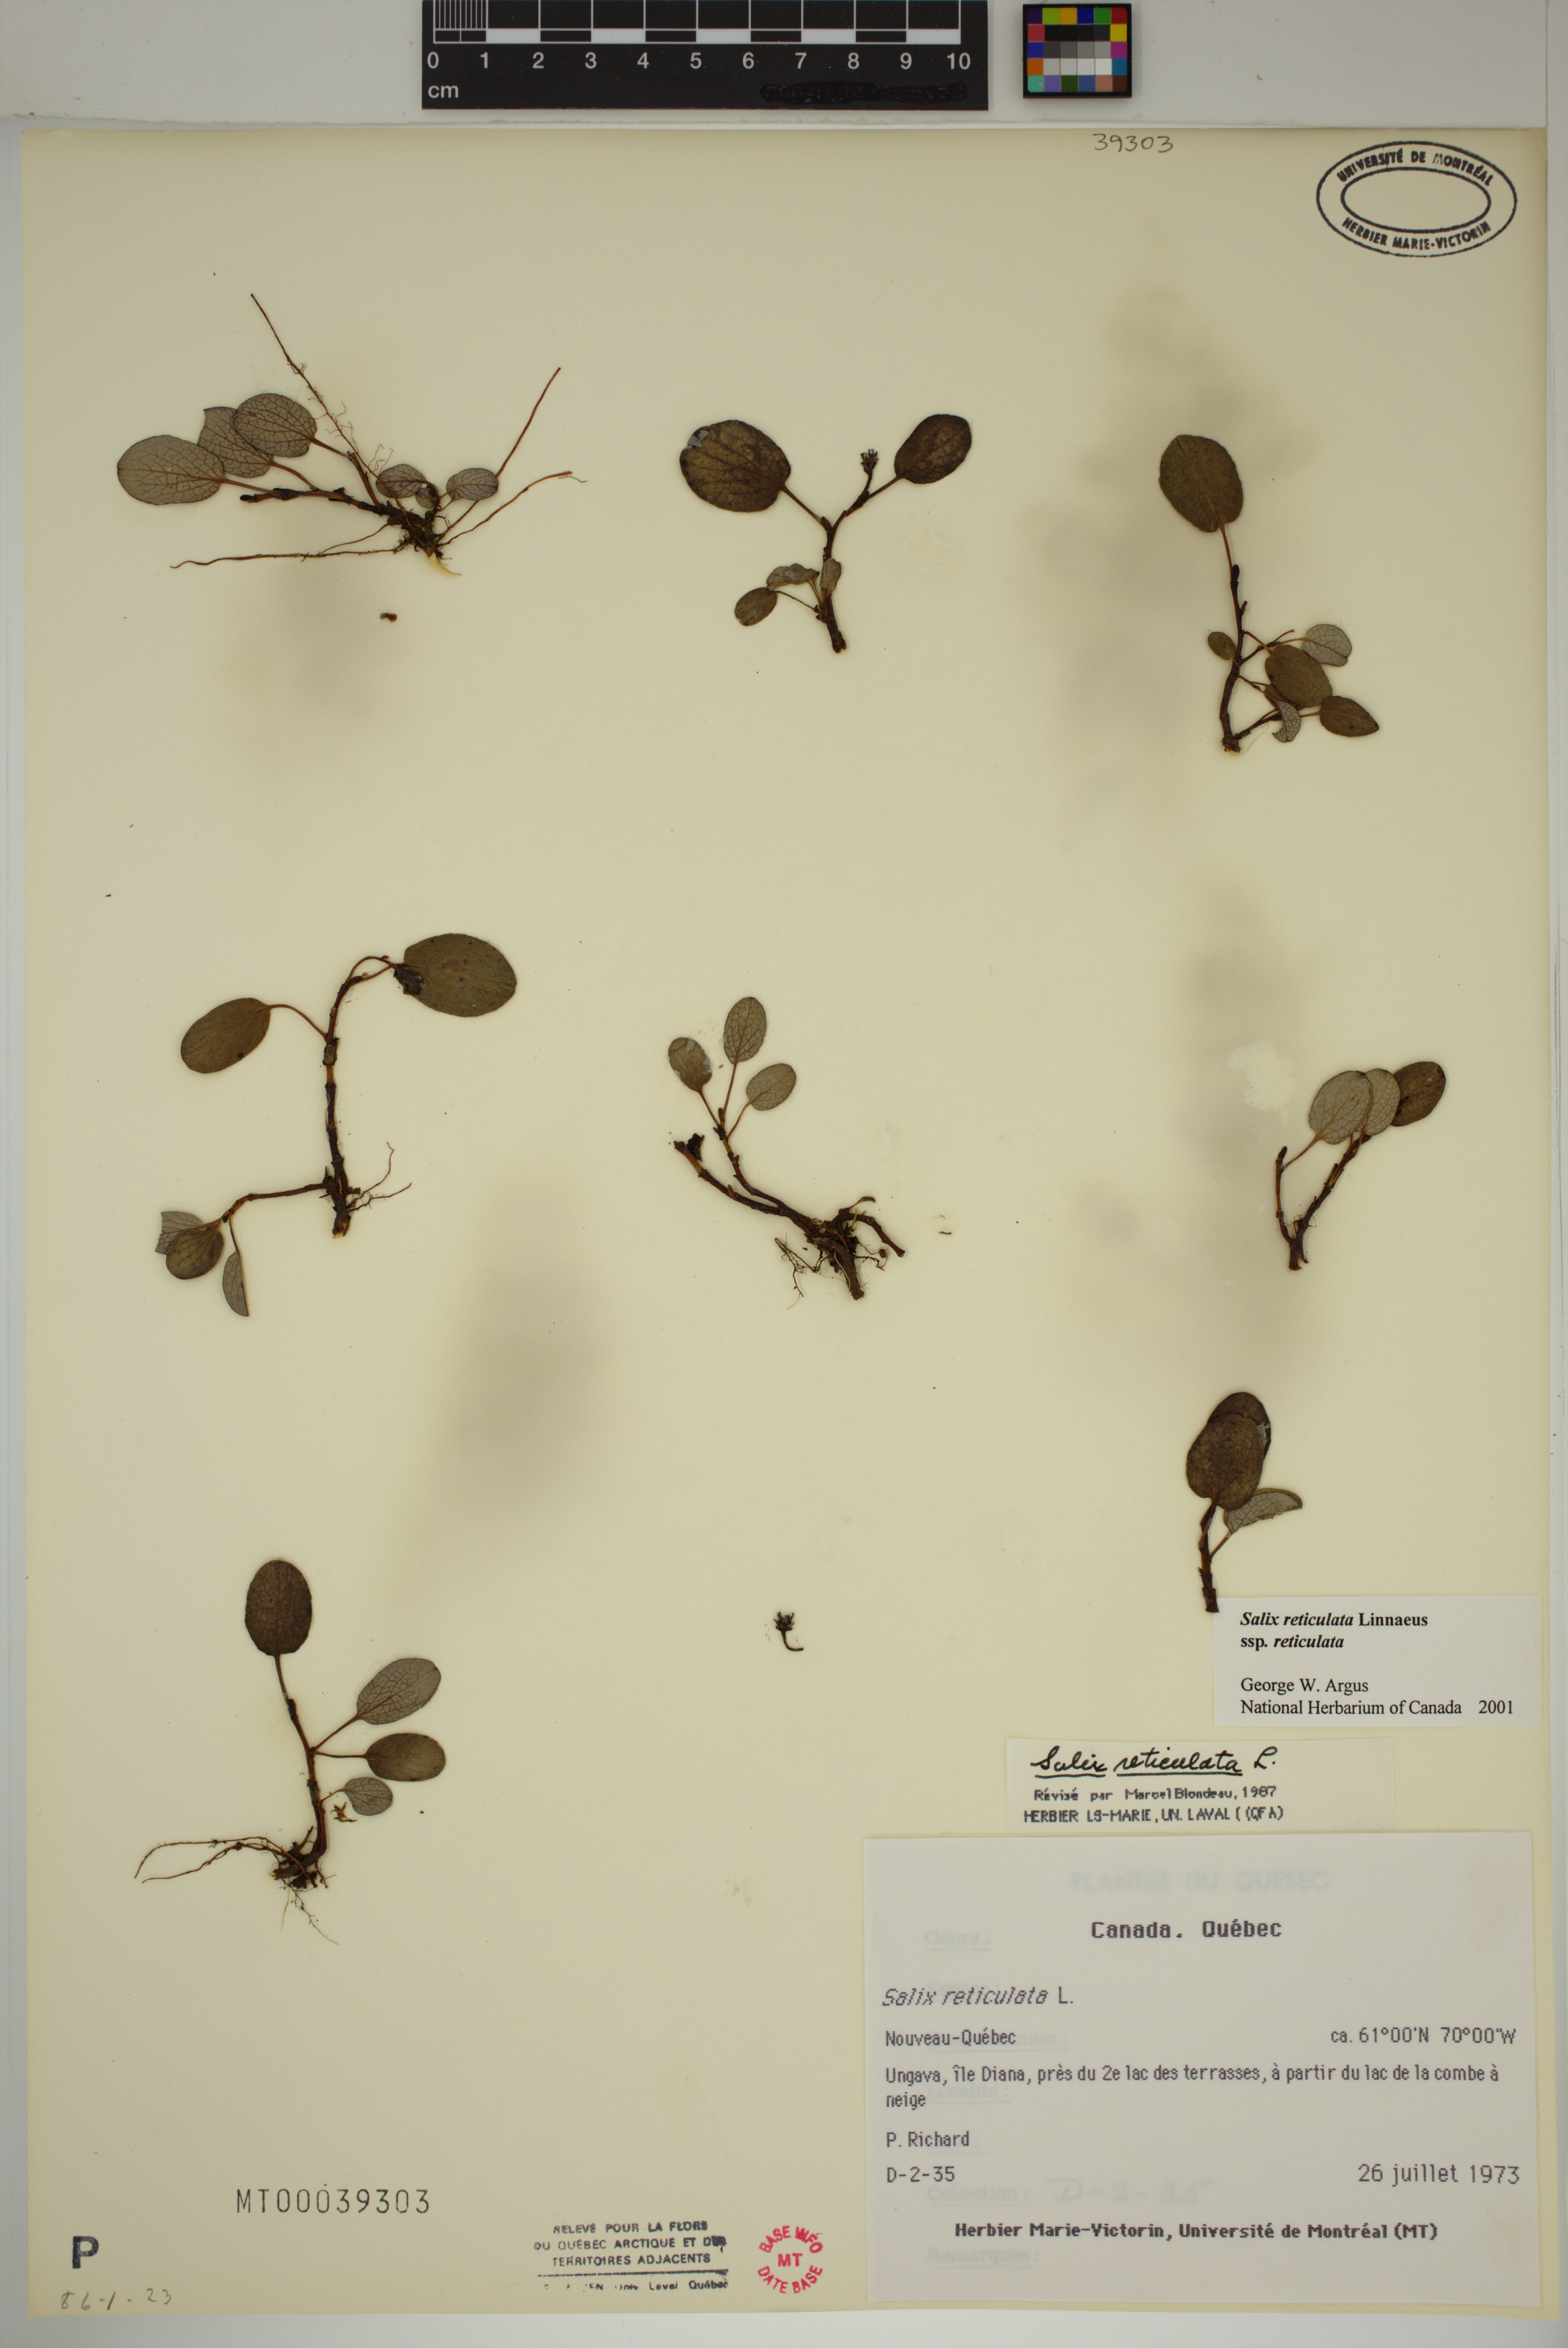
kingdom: Plantae
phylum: Tracheophyta
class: Magnoliopsida
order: Malpighiales
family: Salicaceae
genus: Salix
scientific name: Salix reticulata
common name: Net-leaved willow
